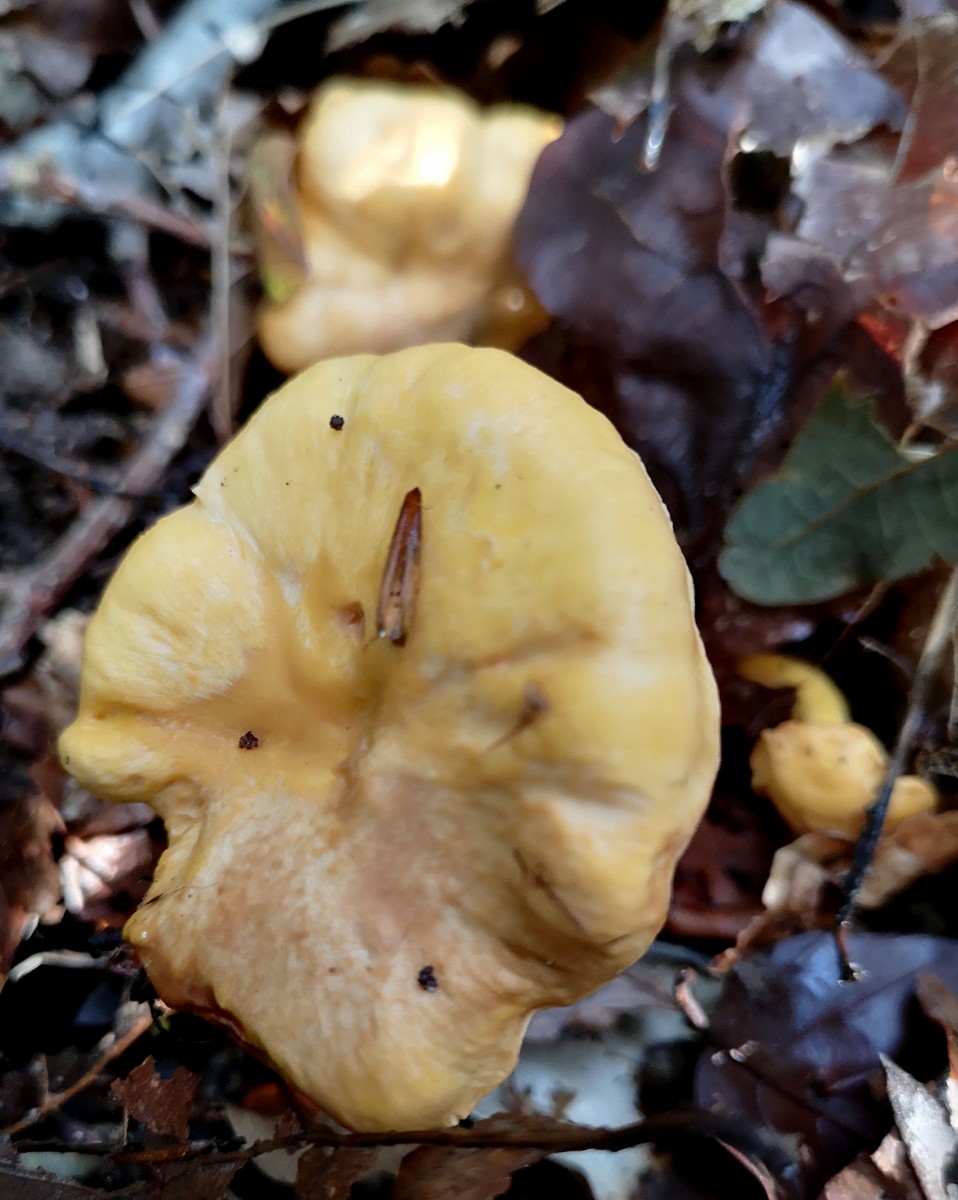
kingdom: Fungi
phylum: Basidiomycota
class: Agaricomycetes
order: Cantharellales
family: Hydnaceae
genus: Cantharellus
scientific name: Cantharellus cibarius
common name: almindelig kantarel
